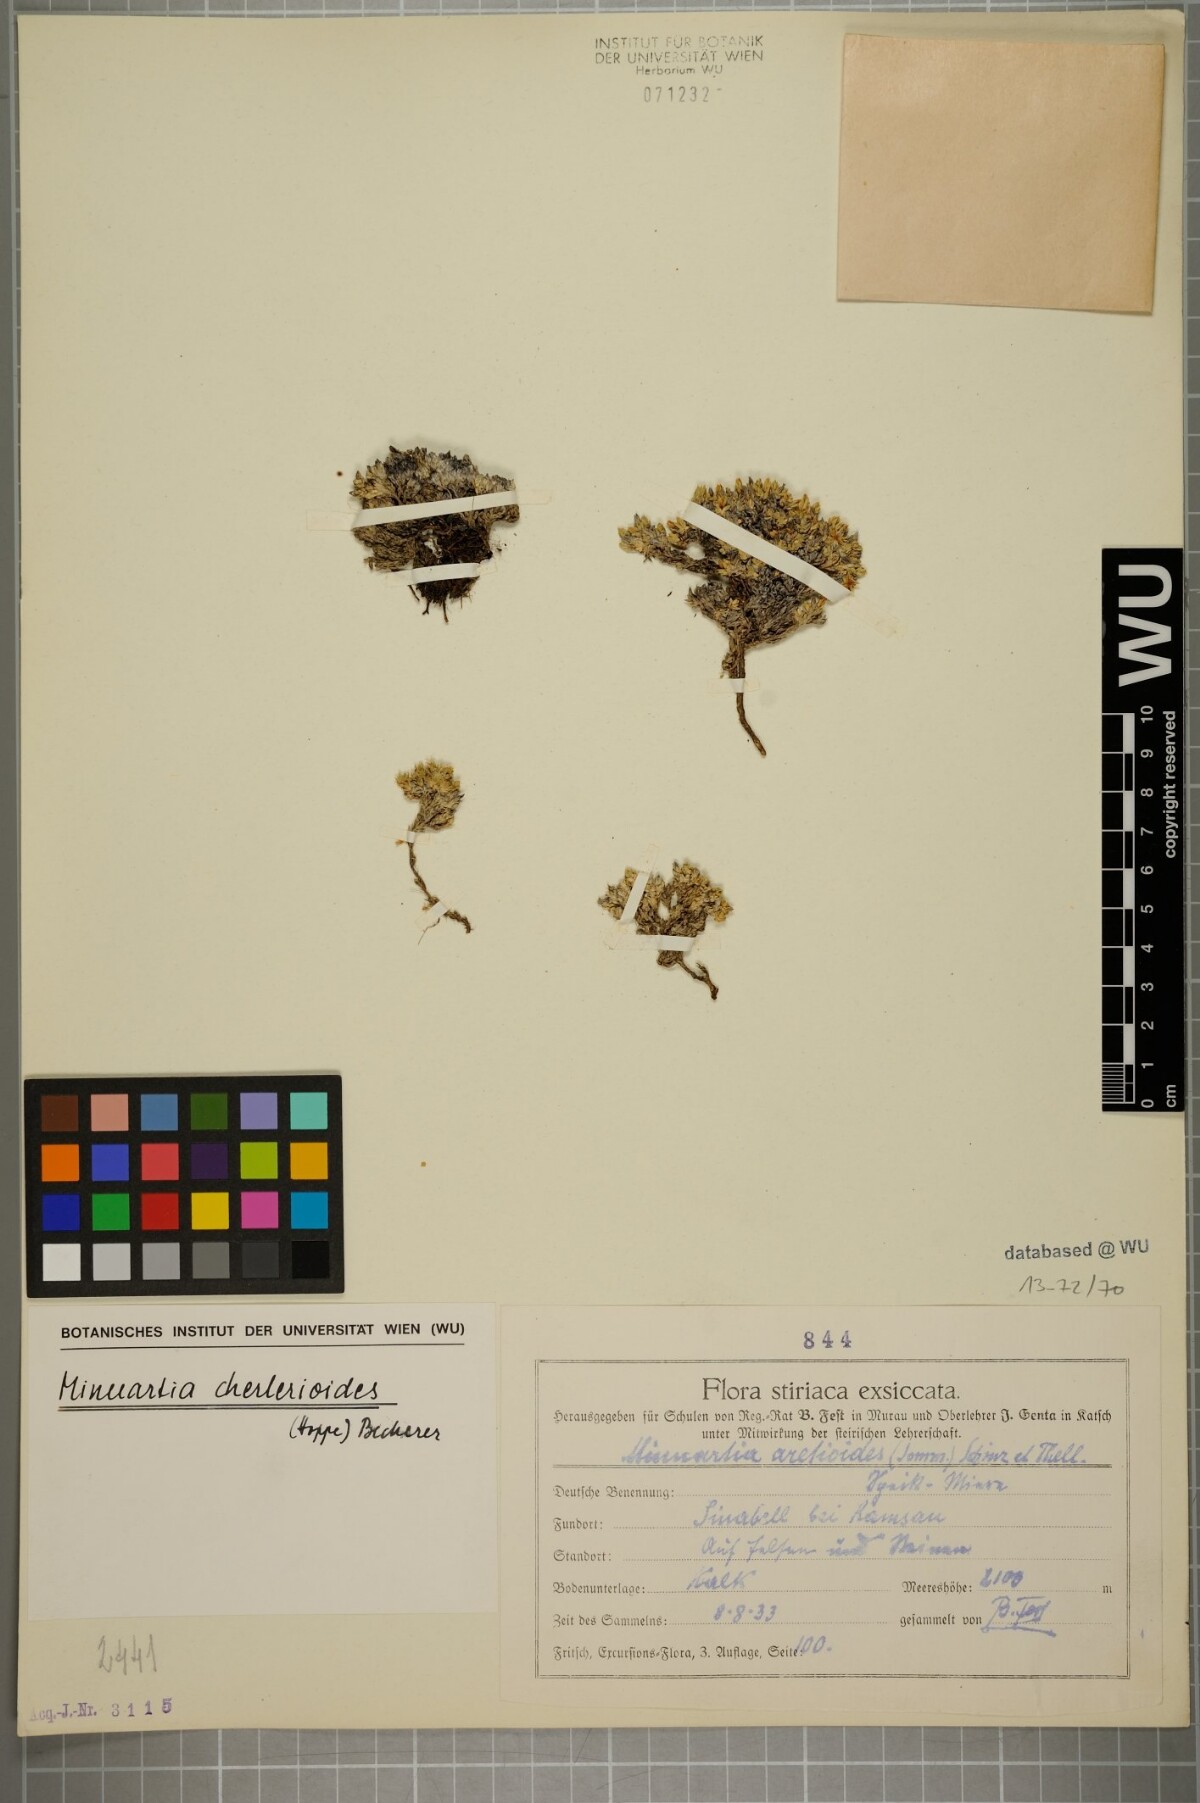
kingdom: Plantae
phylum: Tracheophyta
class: Magnoliopsida
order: Caryophyllales
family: Caryophyllaceae
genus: Facchinia
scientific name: Facchinia cherlerioides
